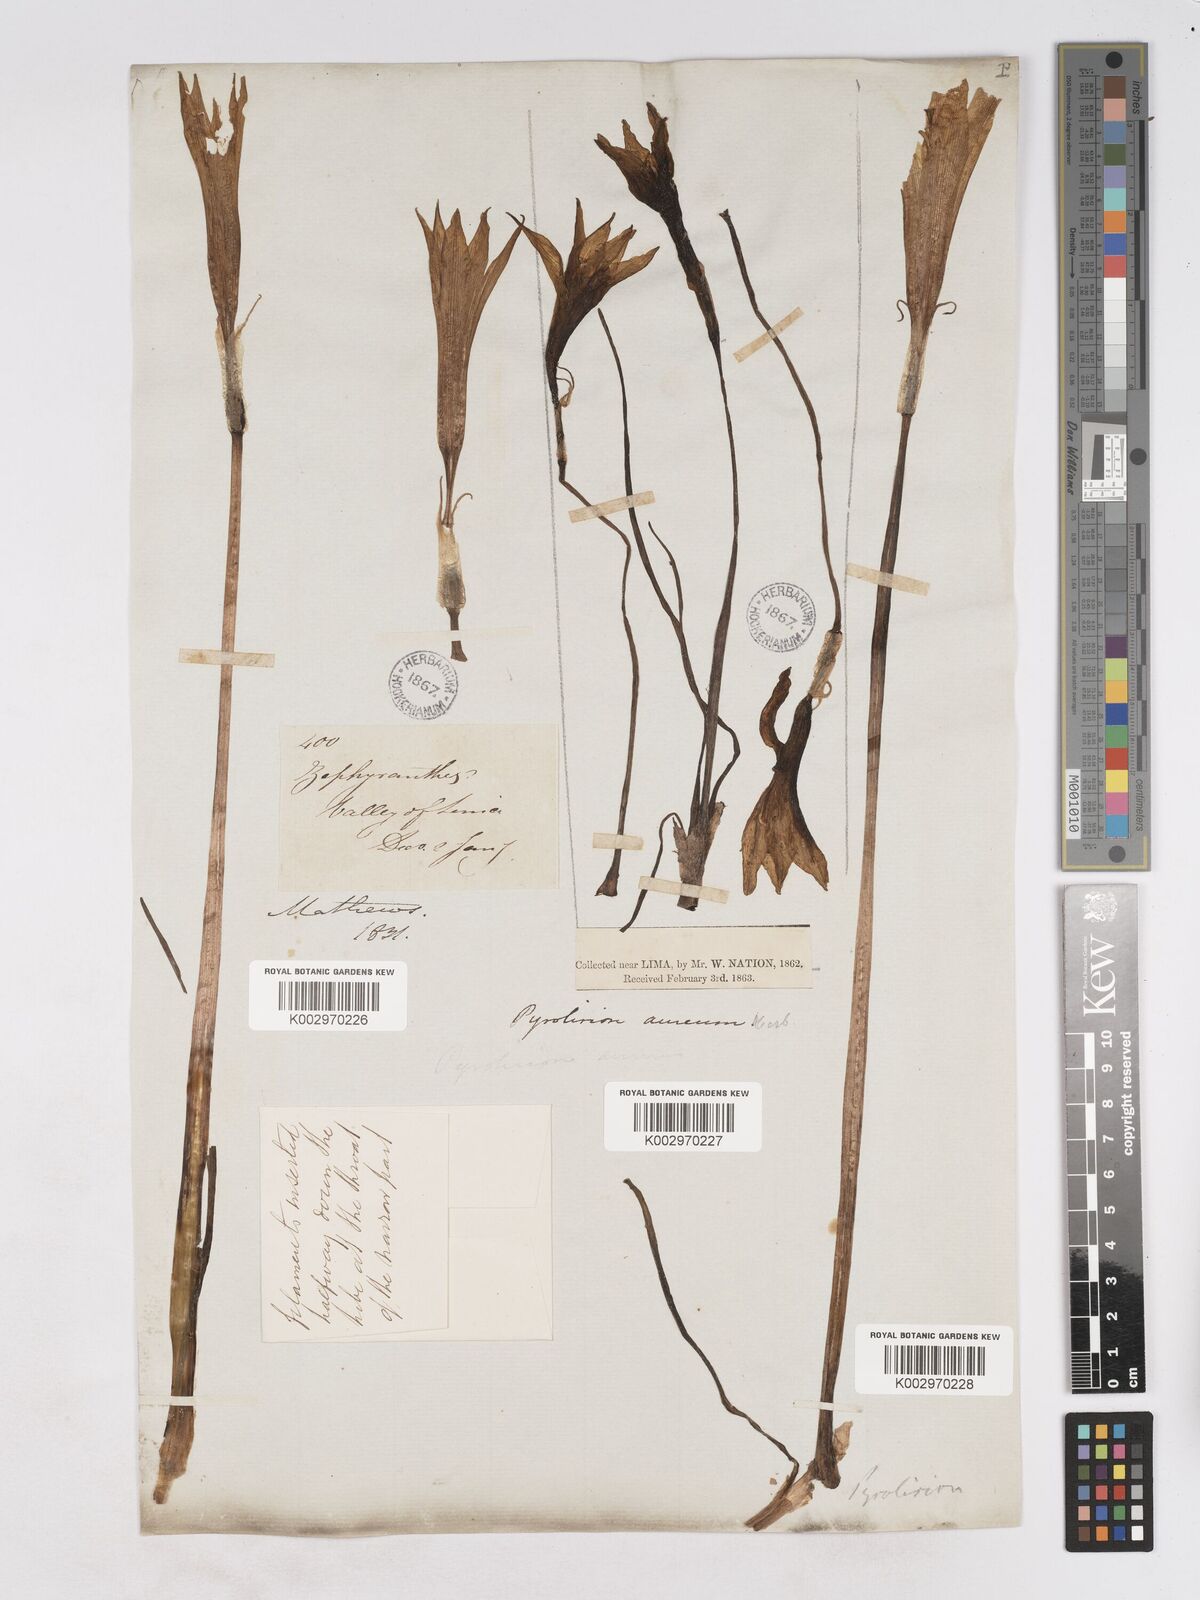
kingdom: Plantae
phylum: Tracheophyta
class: Liliopsida
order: Asparagales
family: Amaryllidaceae
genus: Pyrolirion
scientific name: Pyrolirion tubiflorum
